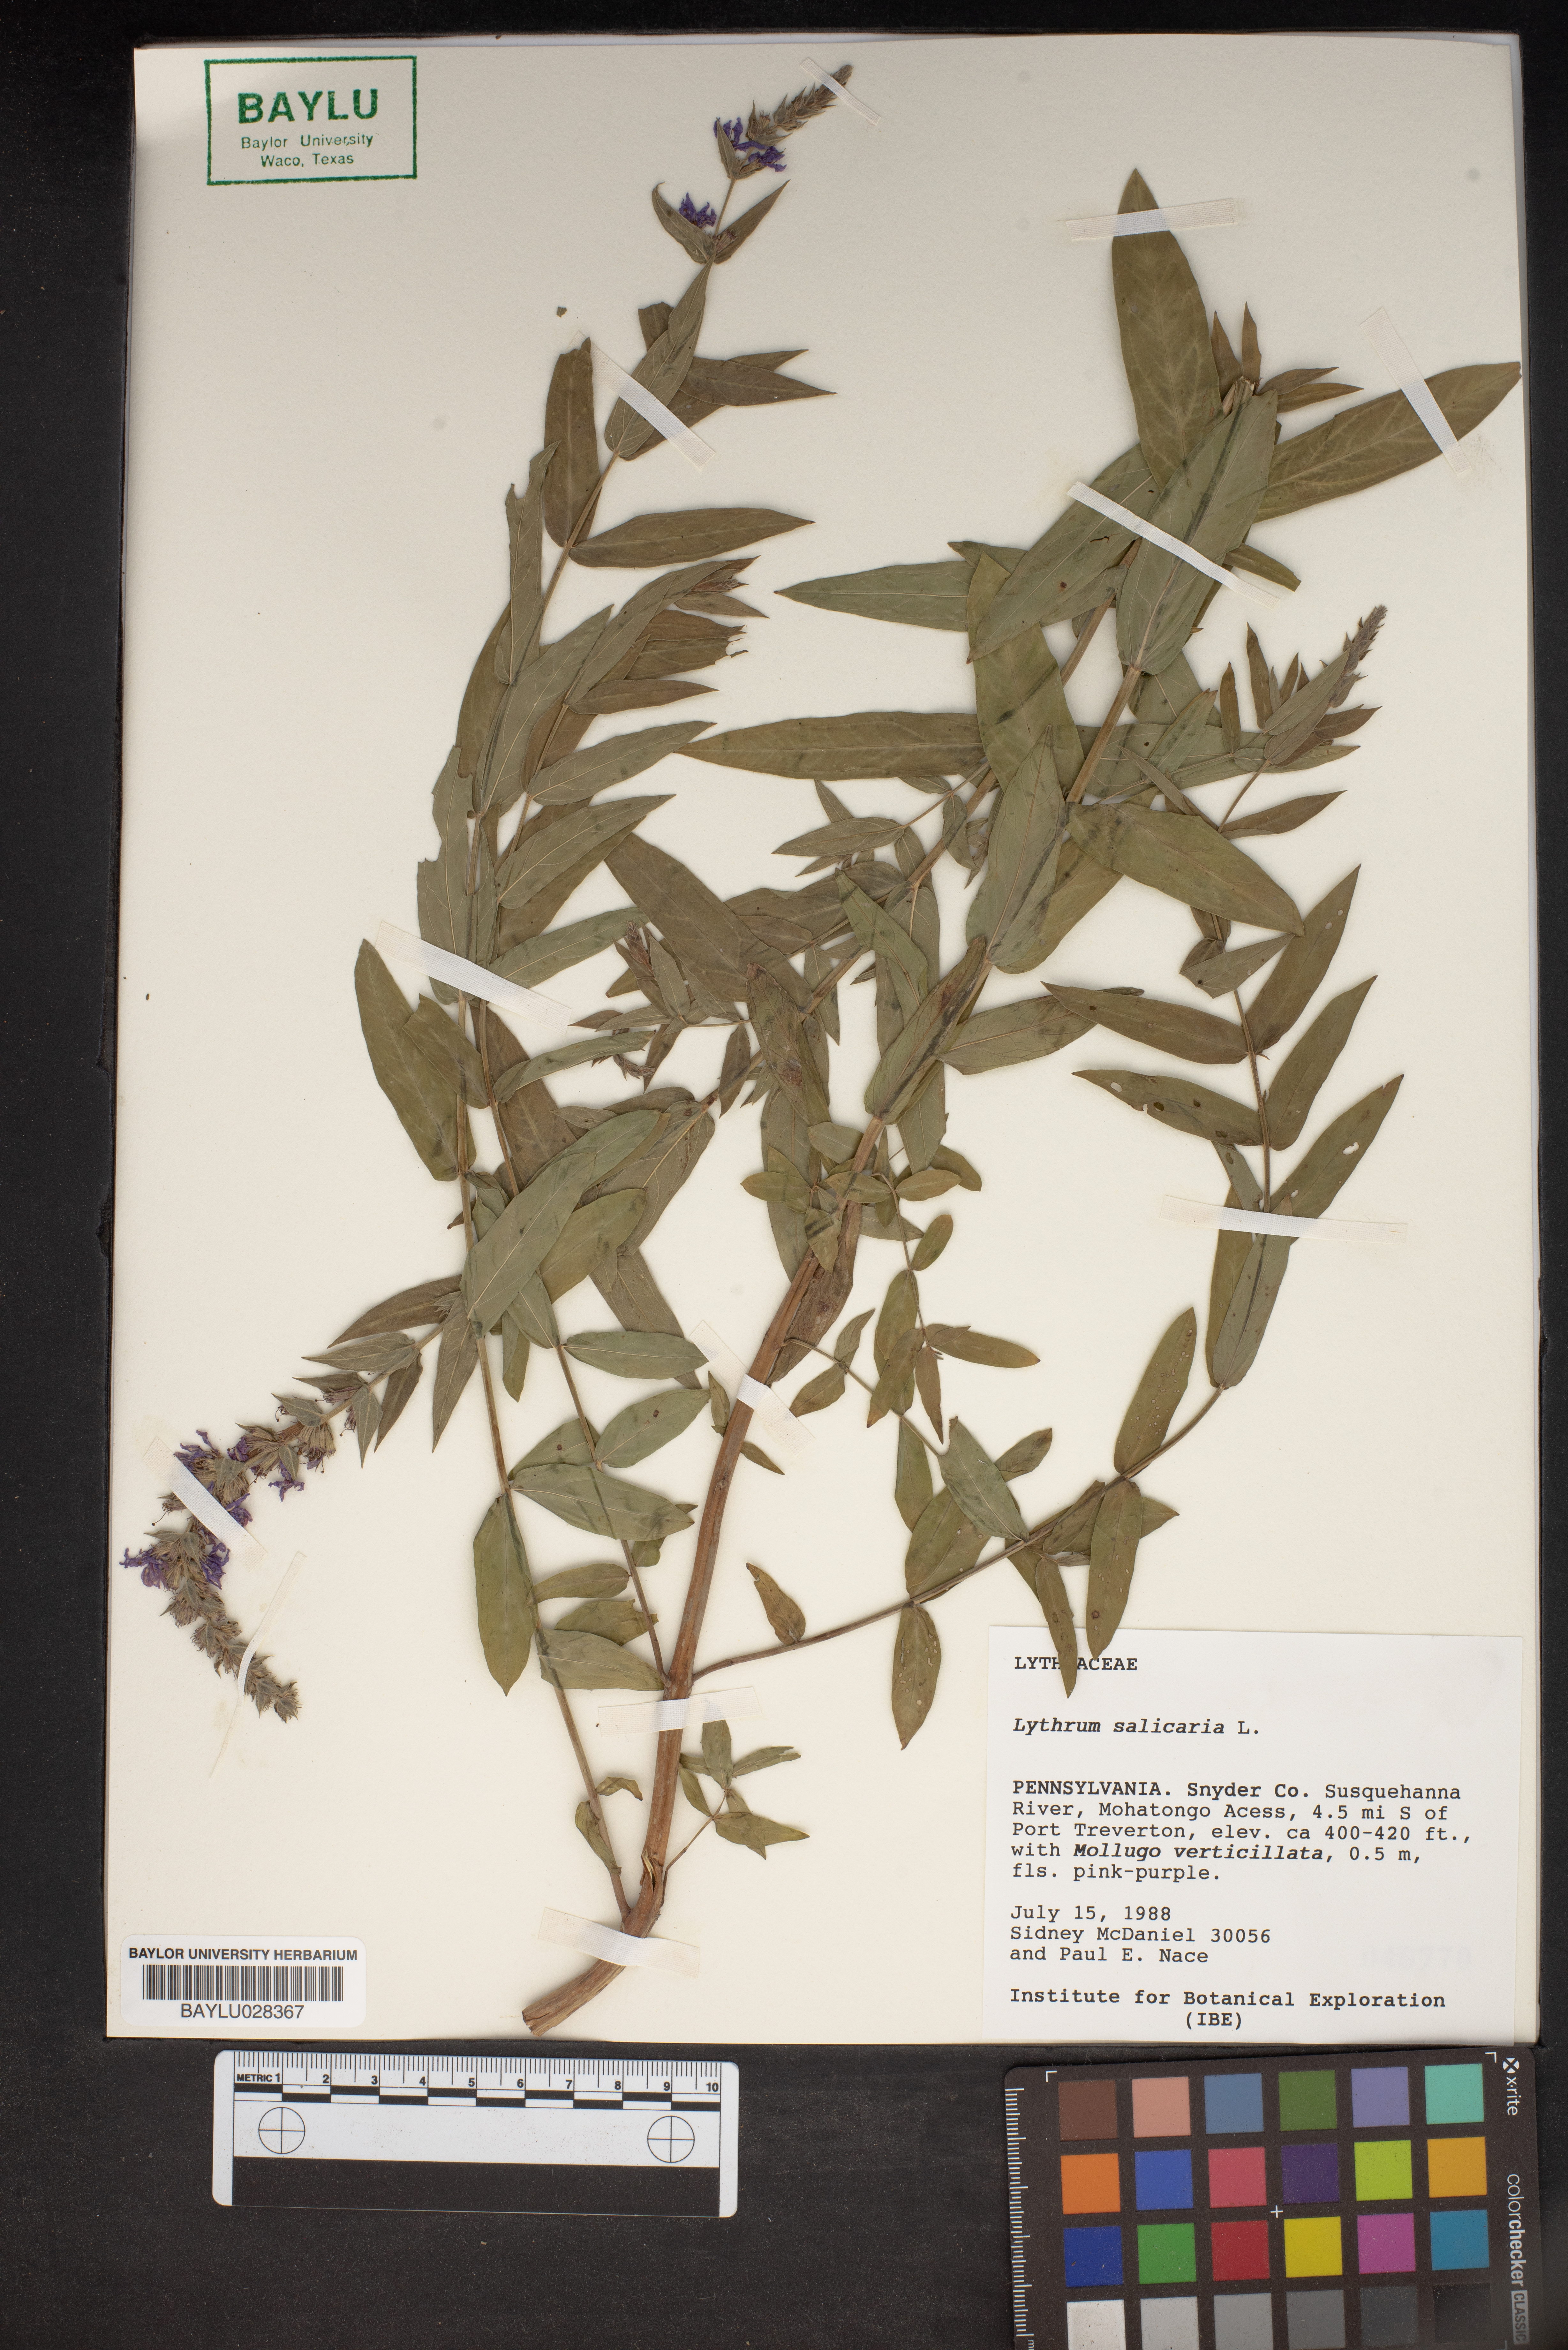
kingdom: Plantae
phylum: Tracheophyta
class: Magnoliopsida
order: Myrtales
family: Lythraceae
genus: Lythrum
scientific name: Lythrum salicaria
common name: Purple loosestrife
